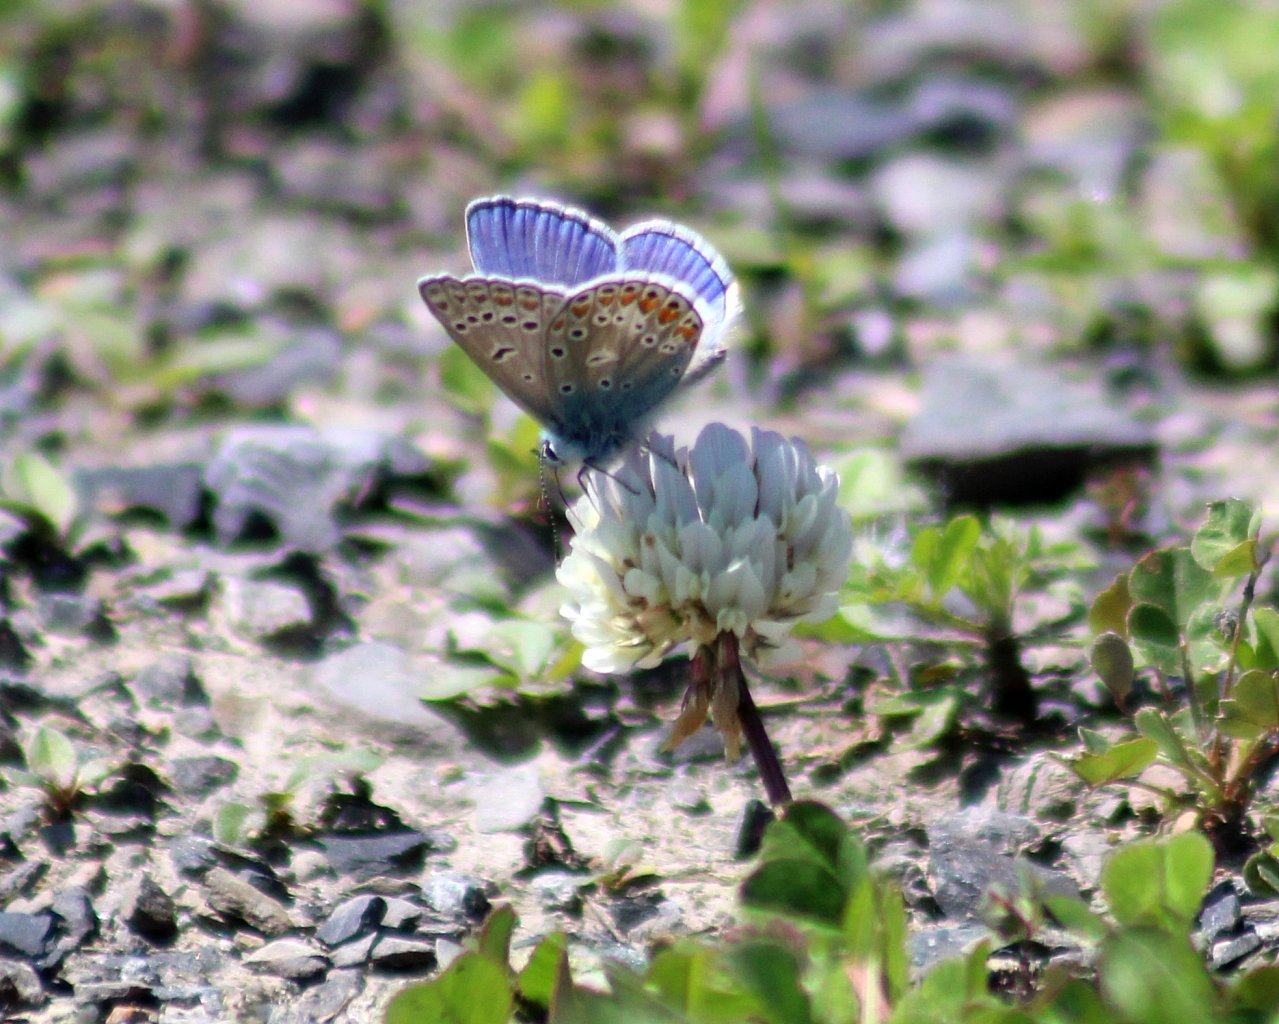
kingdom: Animalia
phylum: Arthropoda
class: Insecta
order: Lepidoptera
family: Lycaenidae
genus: Polyommatus
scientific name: Polyommatus icarus
